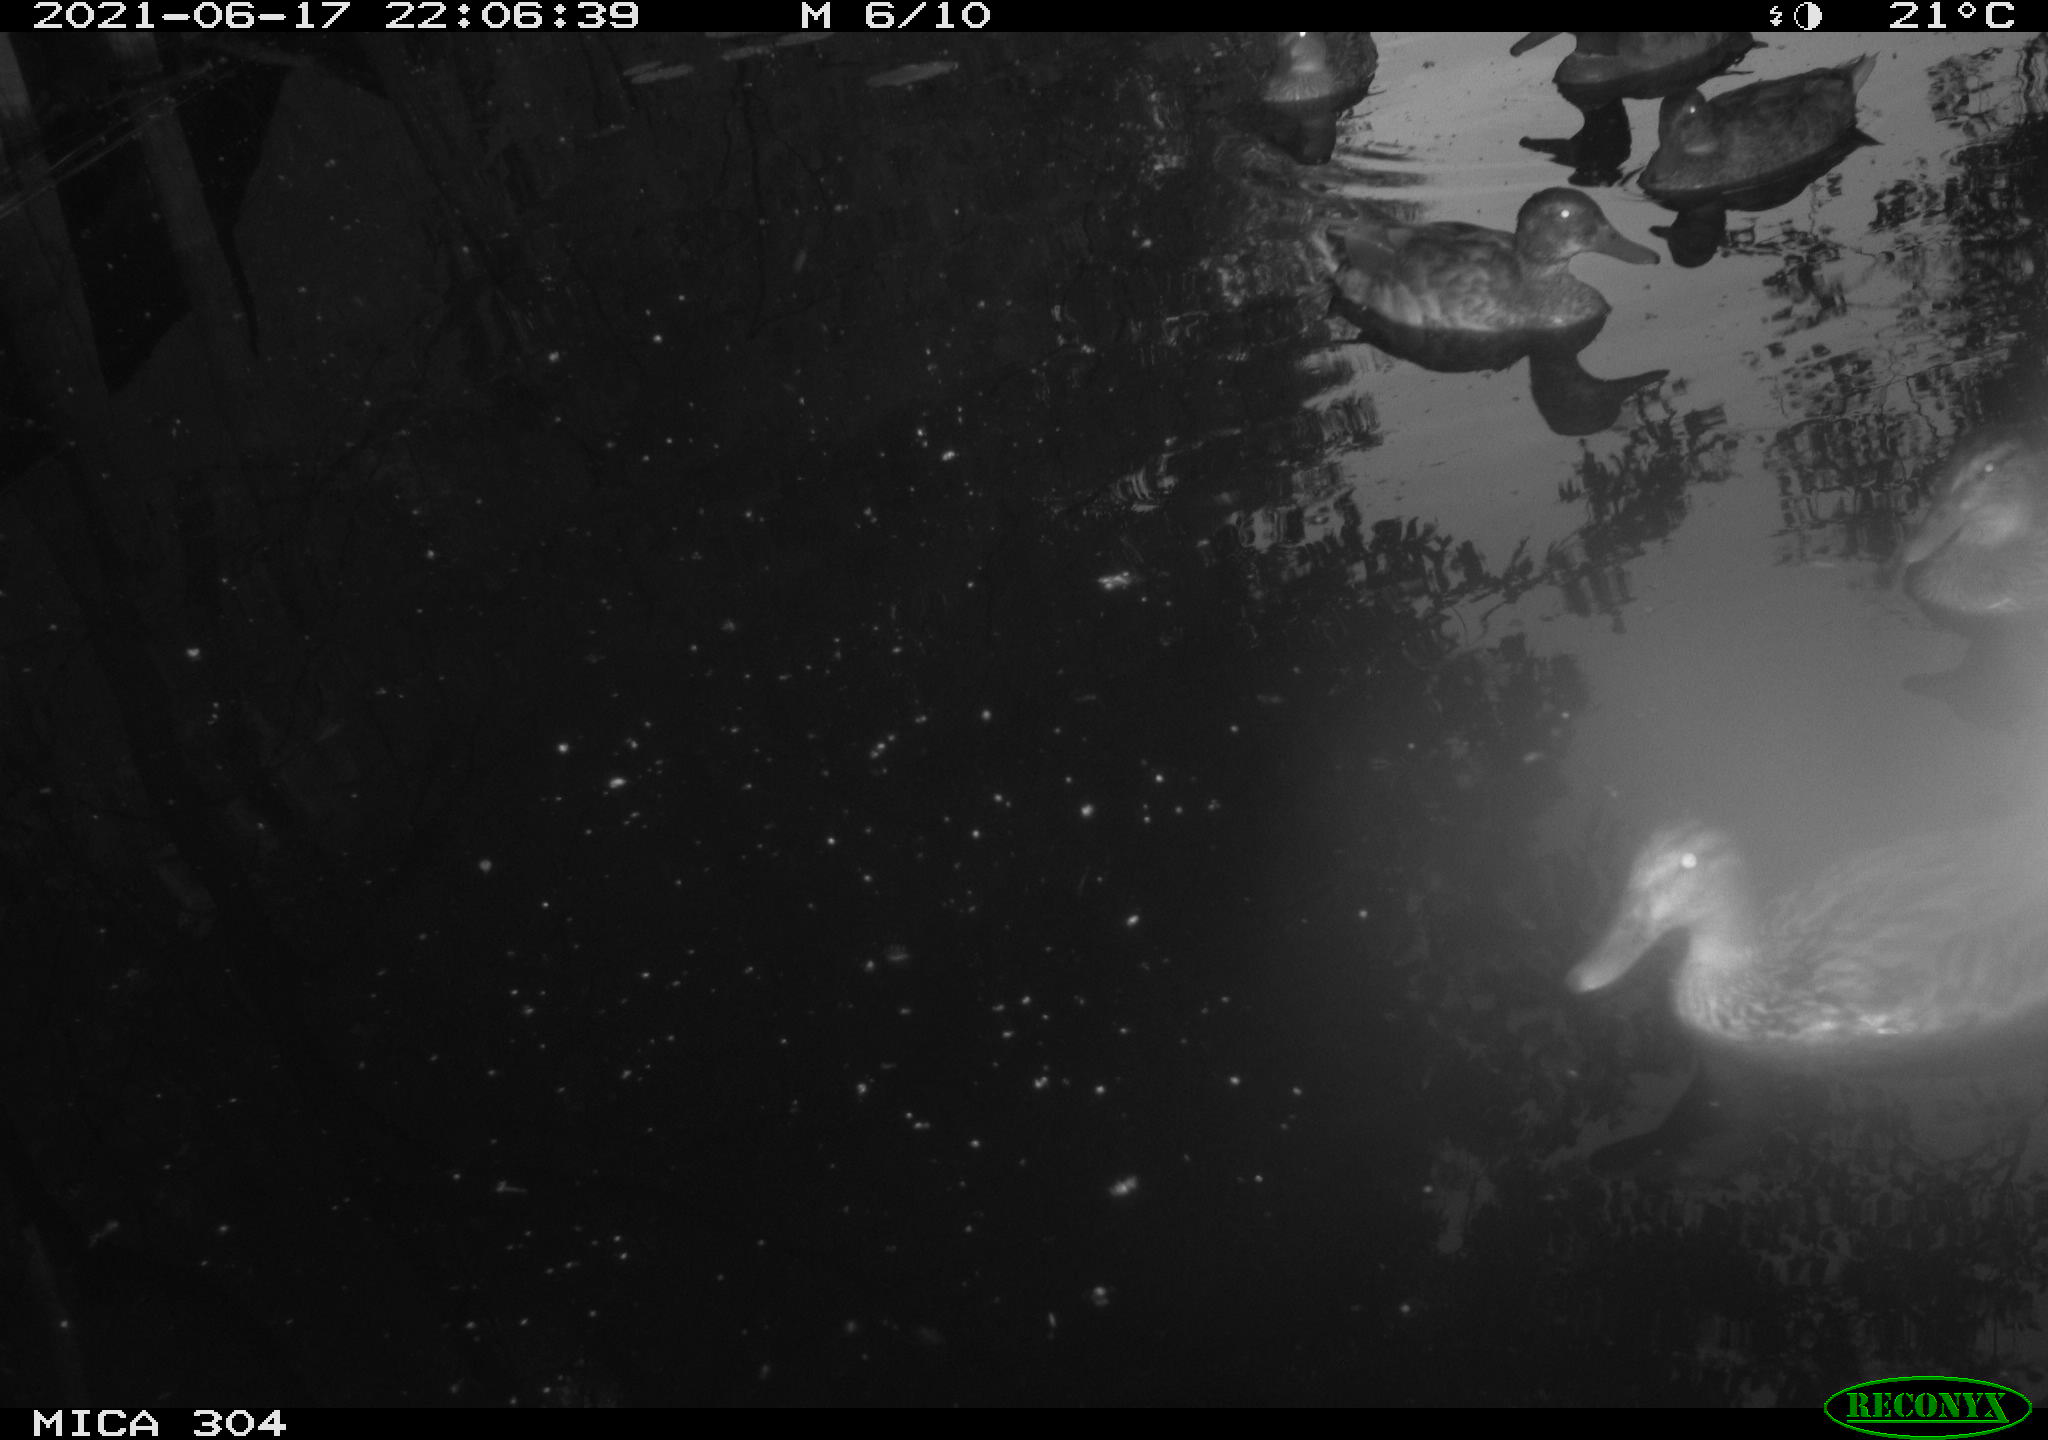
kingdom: Animalia
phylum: Chordata
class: Aves
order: Anseriformes
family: Anatidae
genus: Anas
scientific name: Anas platyrhynchos
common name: Mallard
